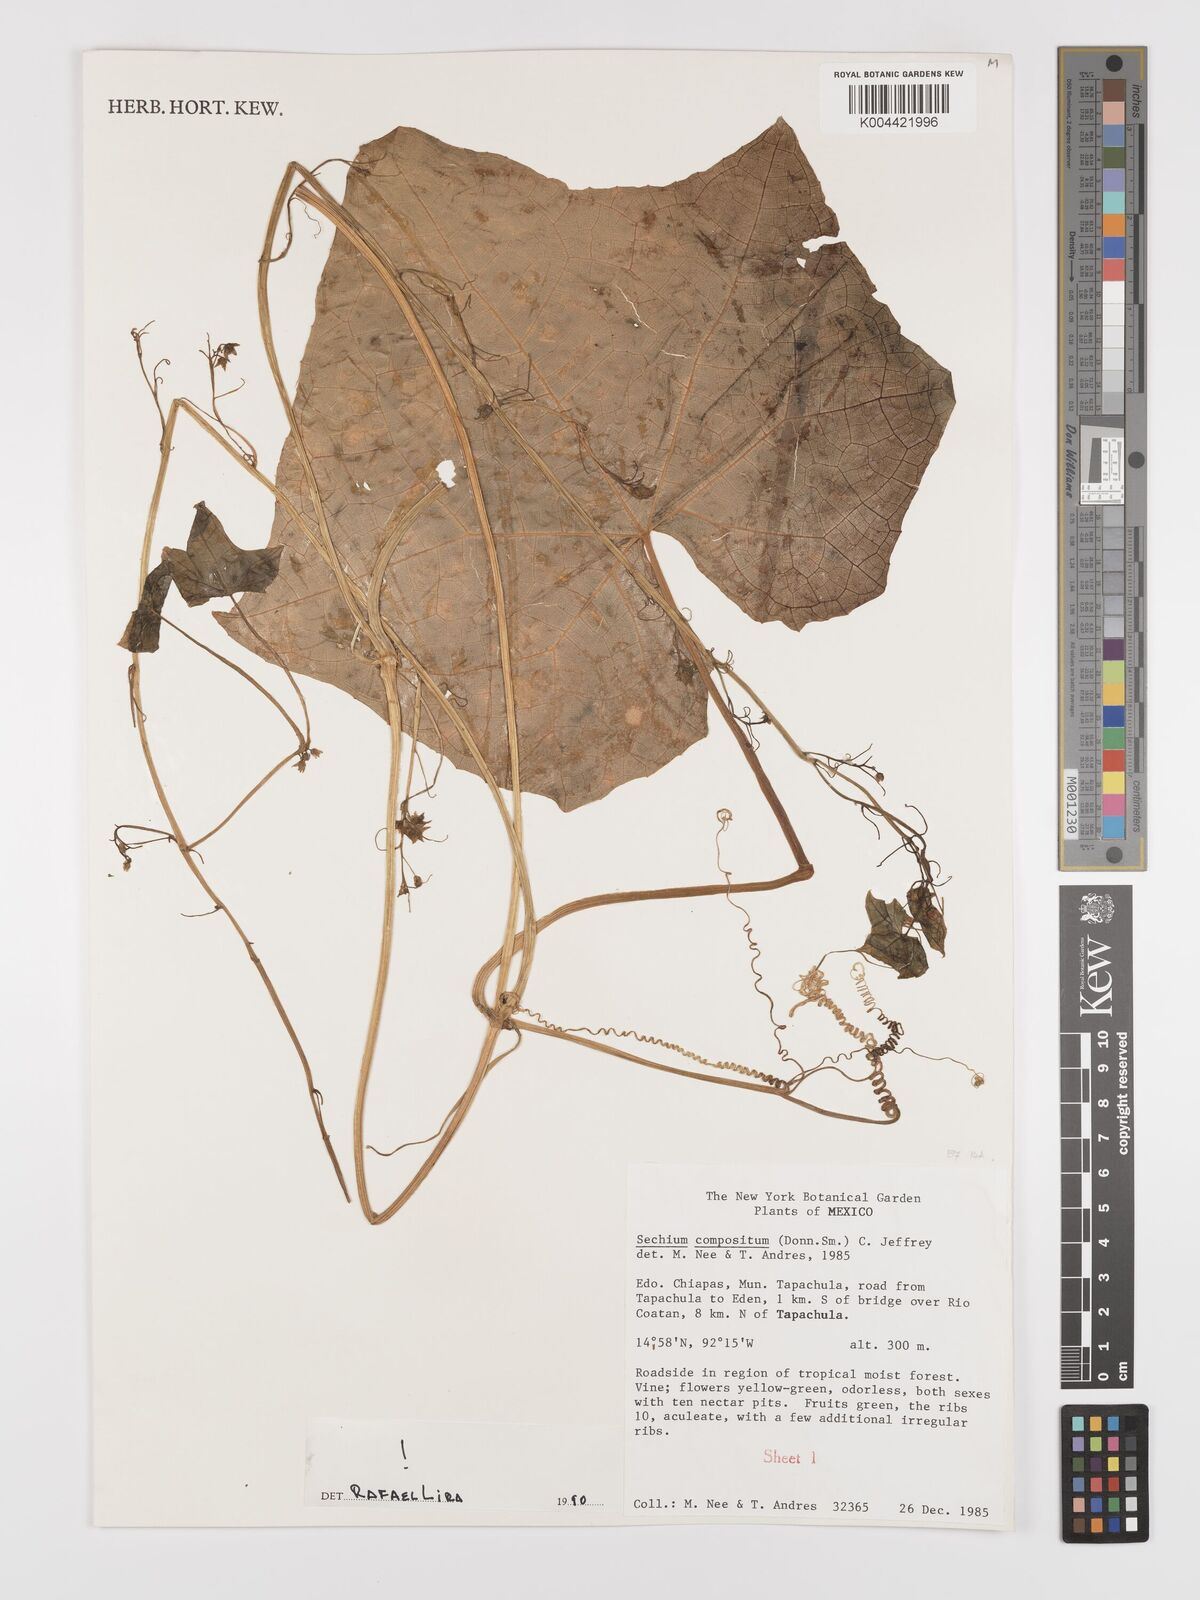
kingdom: Plantae
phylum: Tracheophyta
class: Magnoliopsida
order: Cucurbitales
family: Cucurbitaceae
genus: Sechium
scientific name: Sechium compositum
